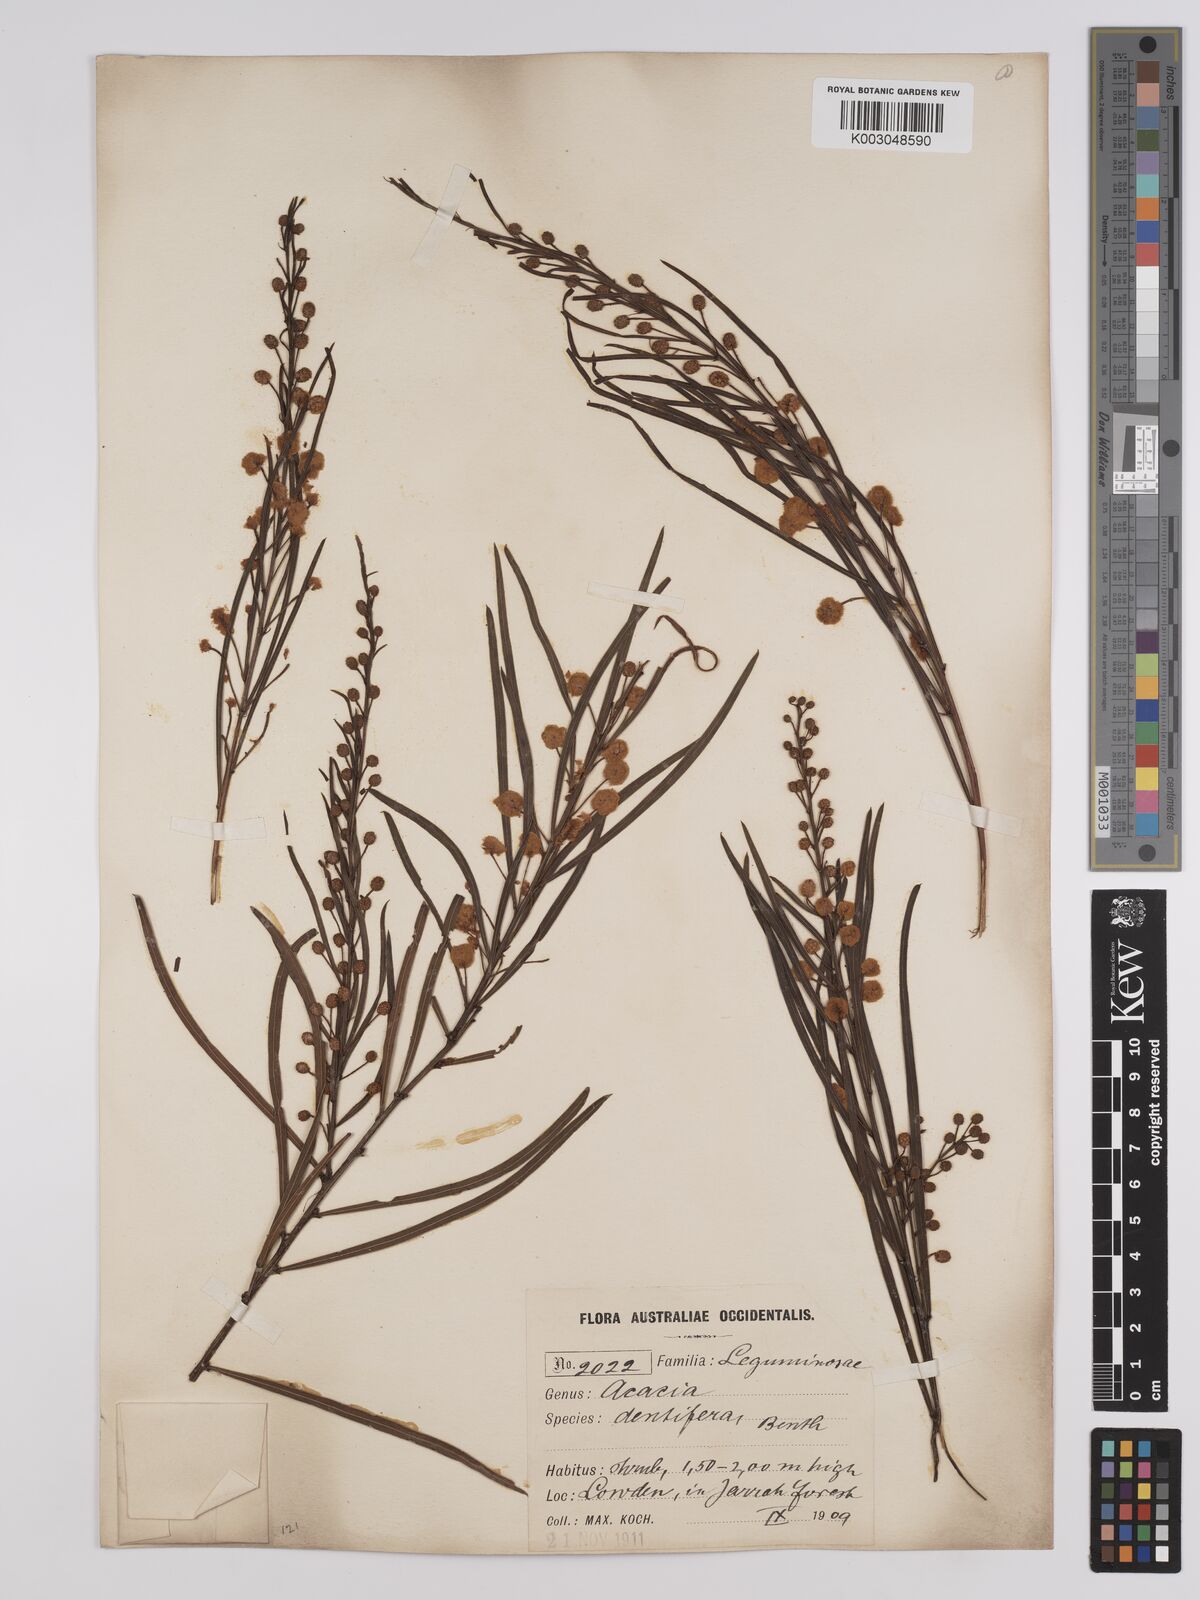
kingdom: Plantae
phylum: Tracheophyta
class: Magnoliopsida
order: Fabales
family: Fabaceae
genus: Acacia
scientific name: Acacia dentifera
